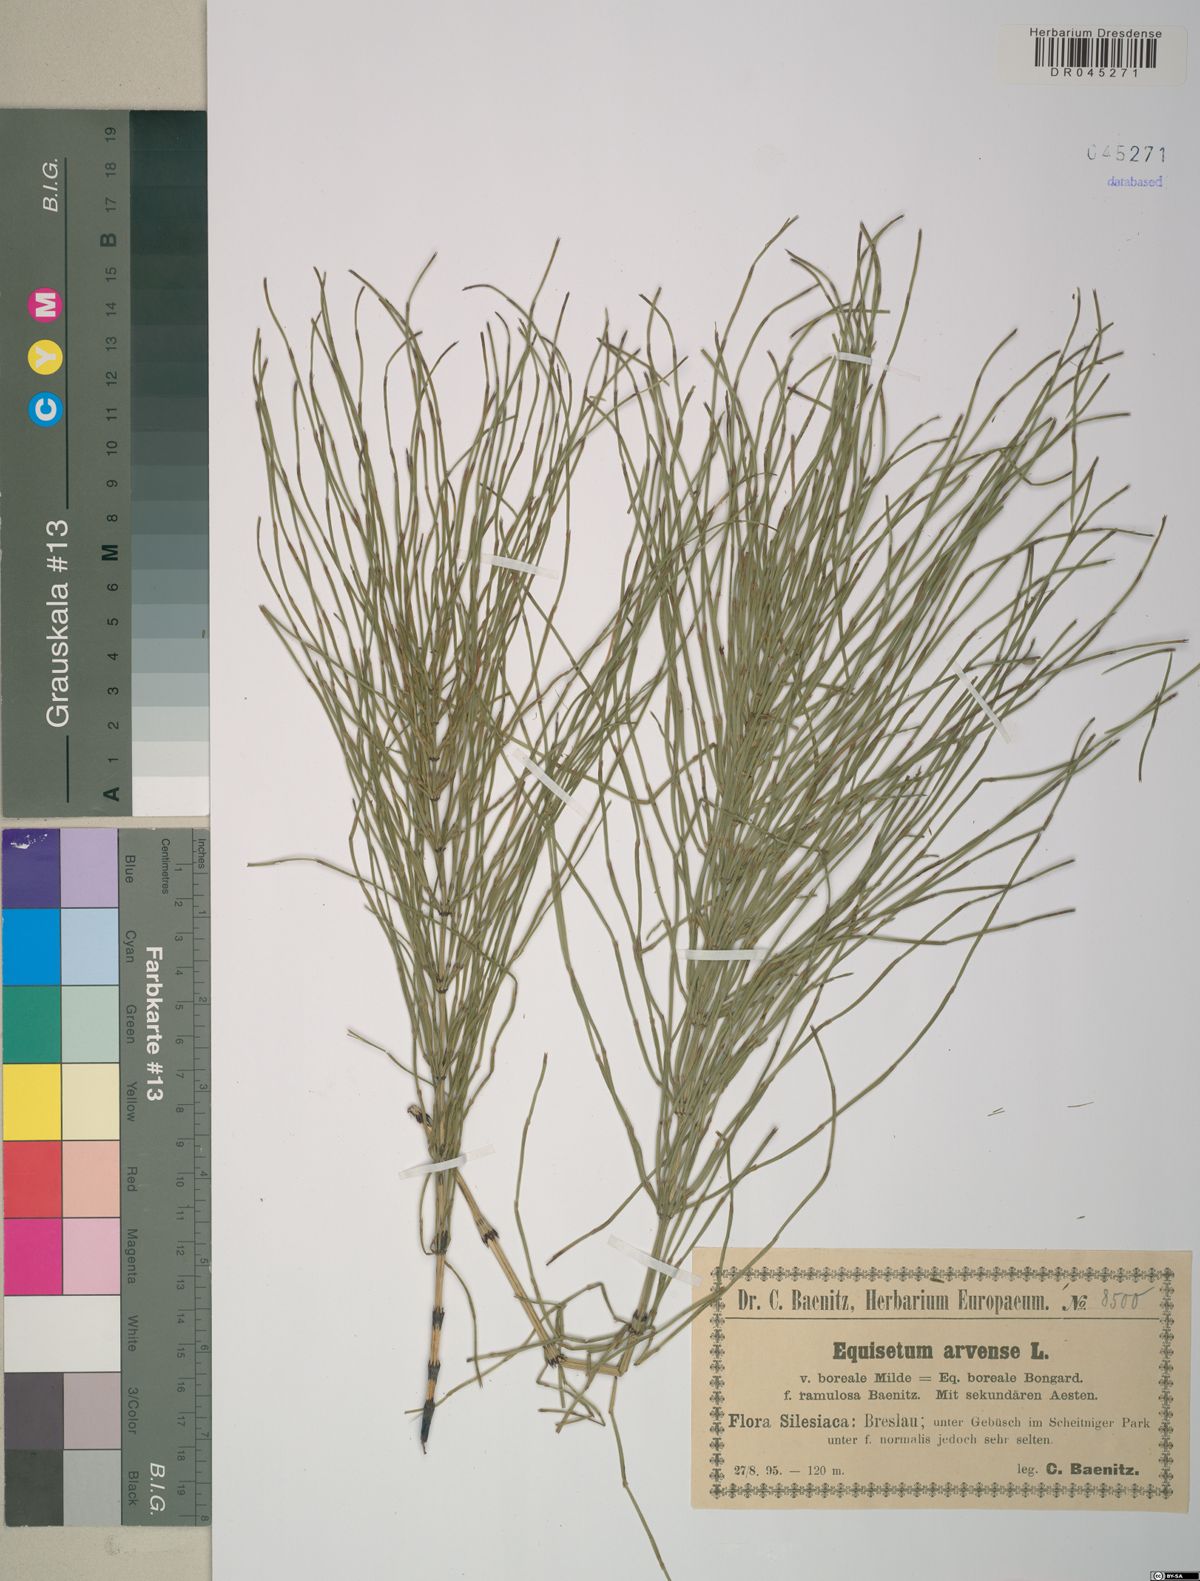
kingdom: Plantae
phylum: Tracheophyta
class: Polypodiopsida
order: Equisetales
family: Equisetaceae
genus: Equisetum
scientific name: Equisetum arvense
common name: Field horsetail
